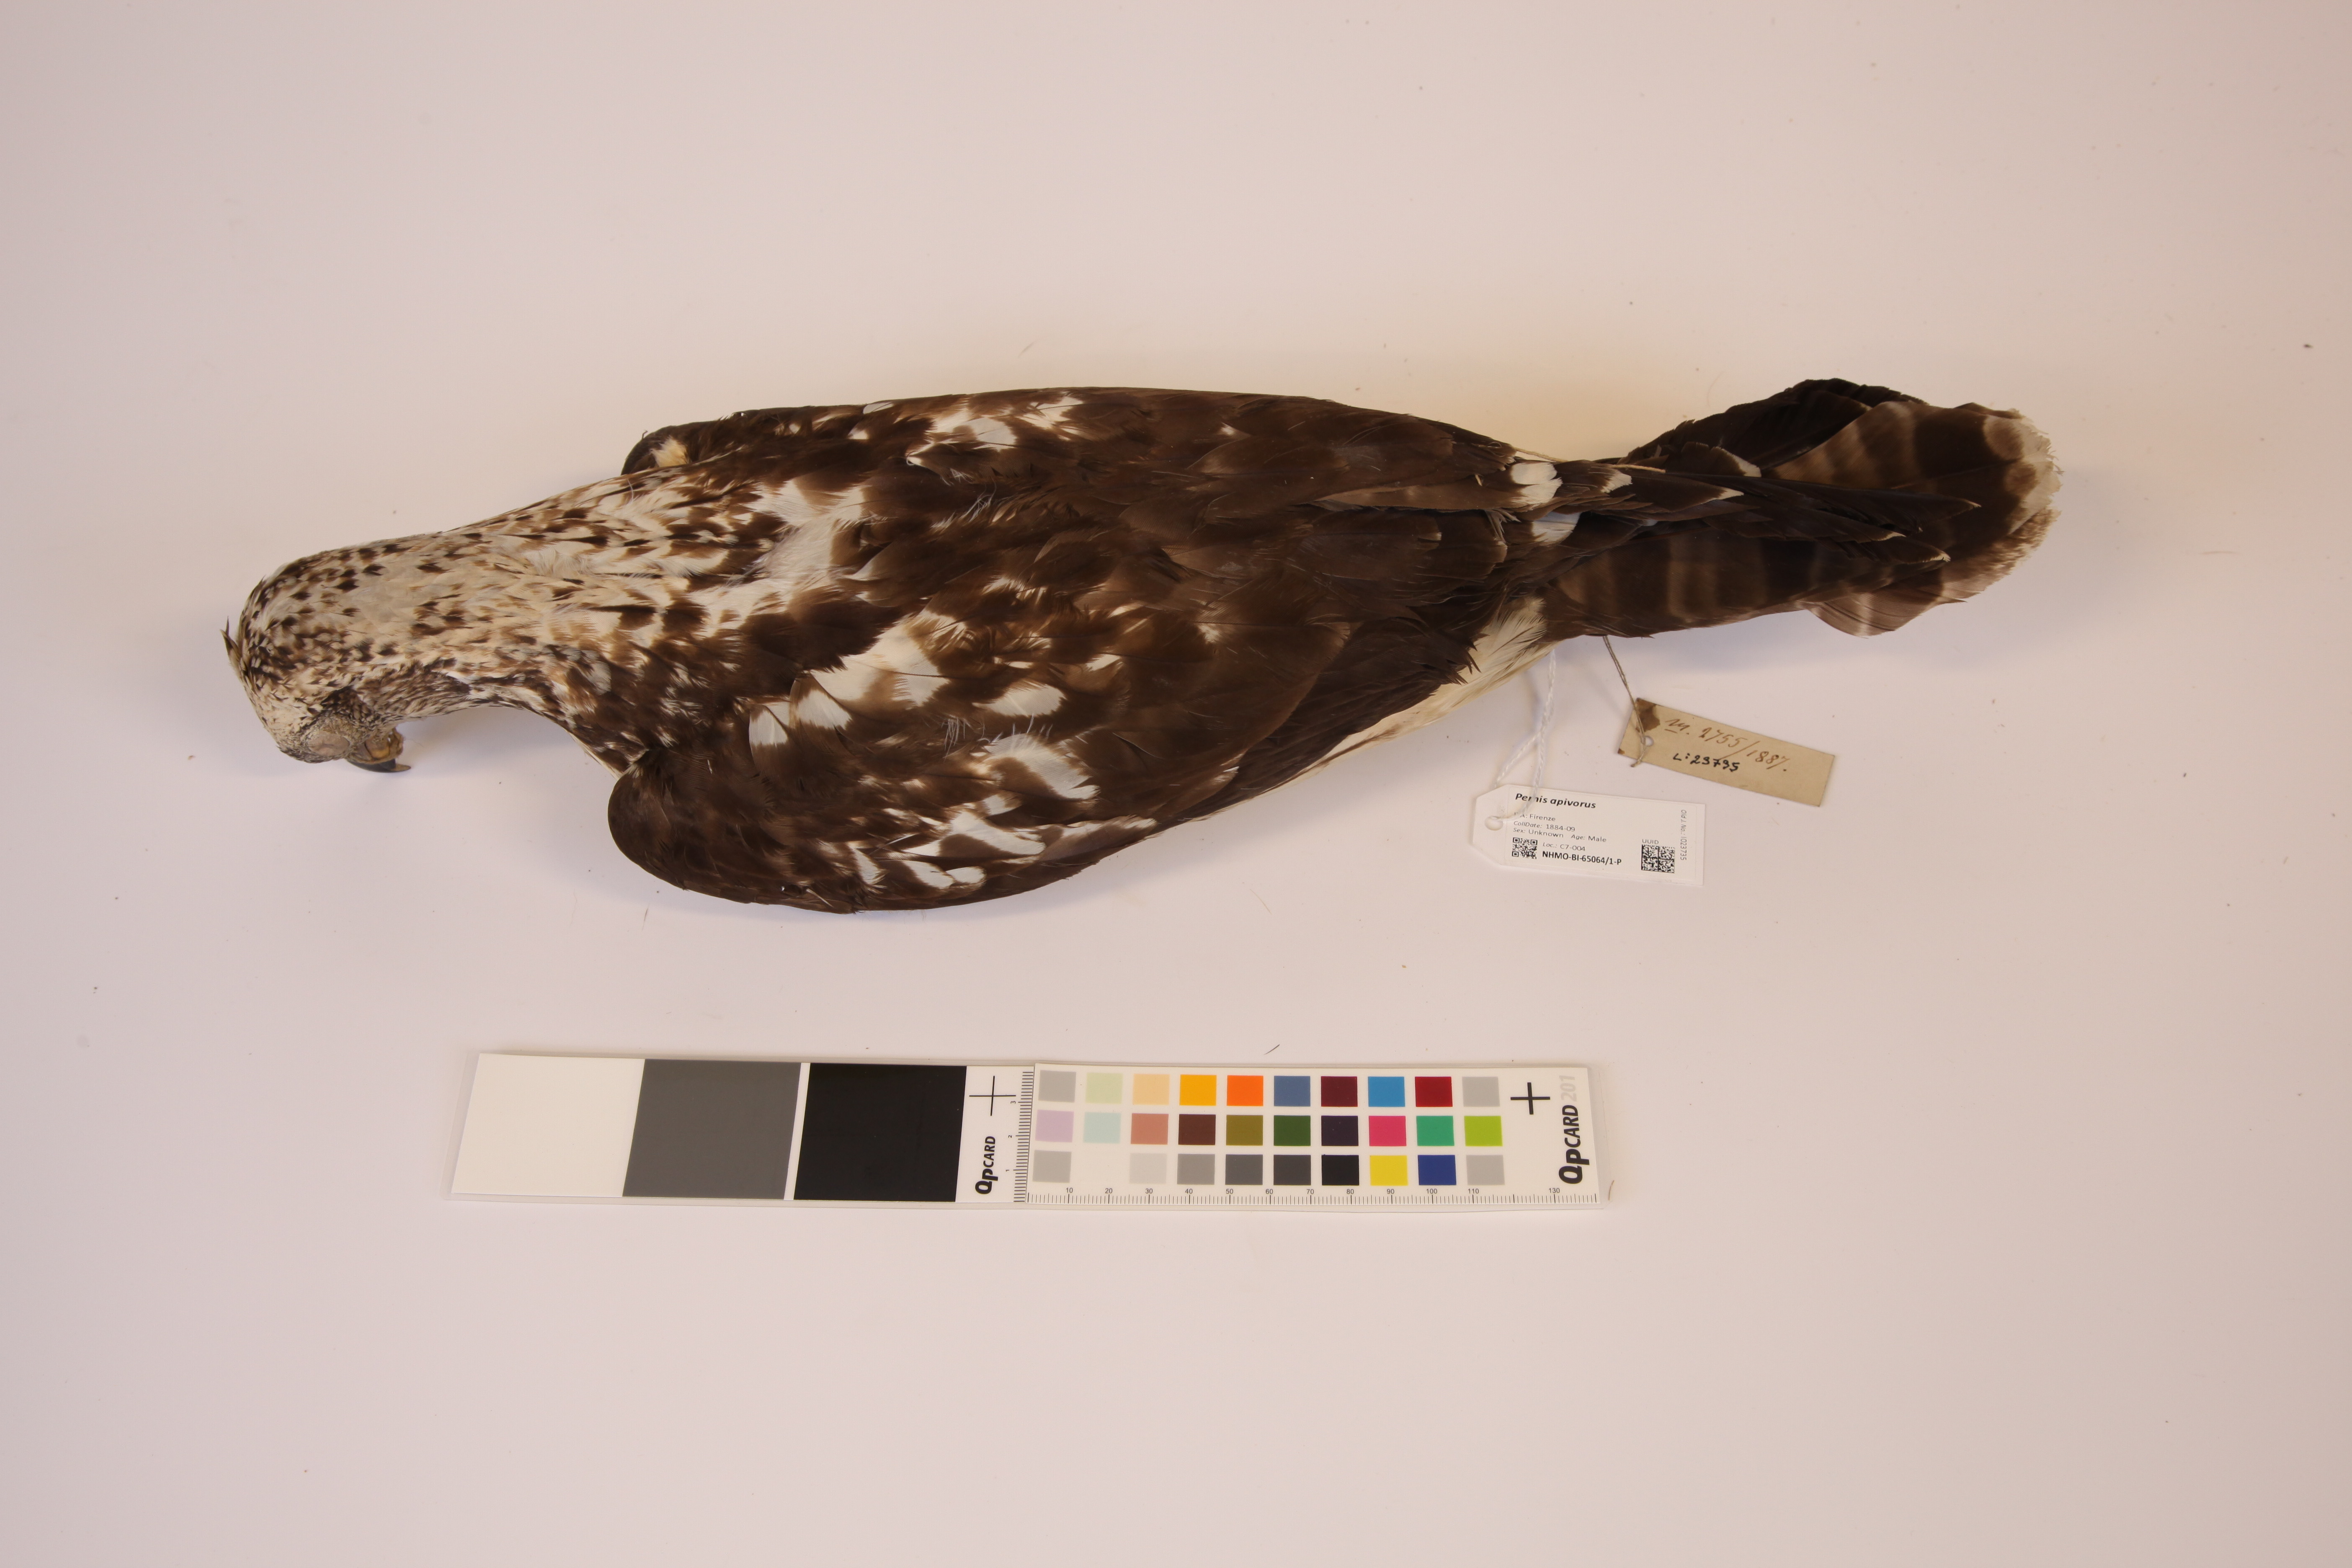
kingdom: Animalia
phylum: Chordata
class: Aves
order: Accipitriformes
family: Accipitridae
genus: Pernis
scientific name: Pernis apivorus
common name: European honey buzzard
